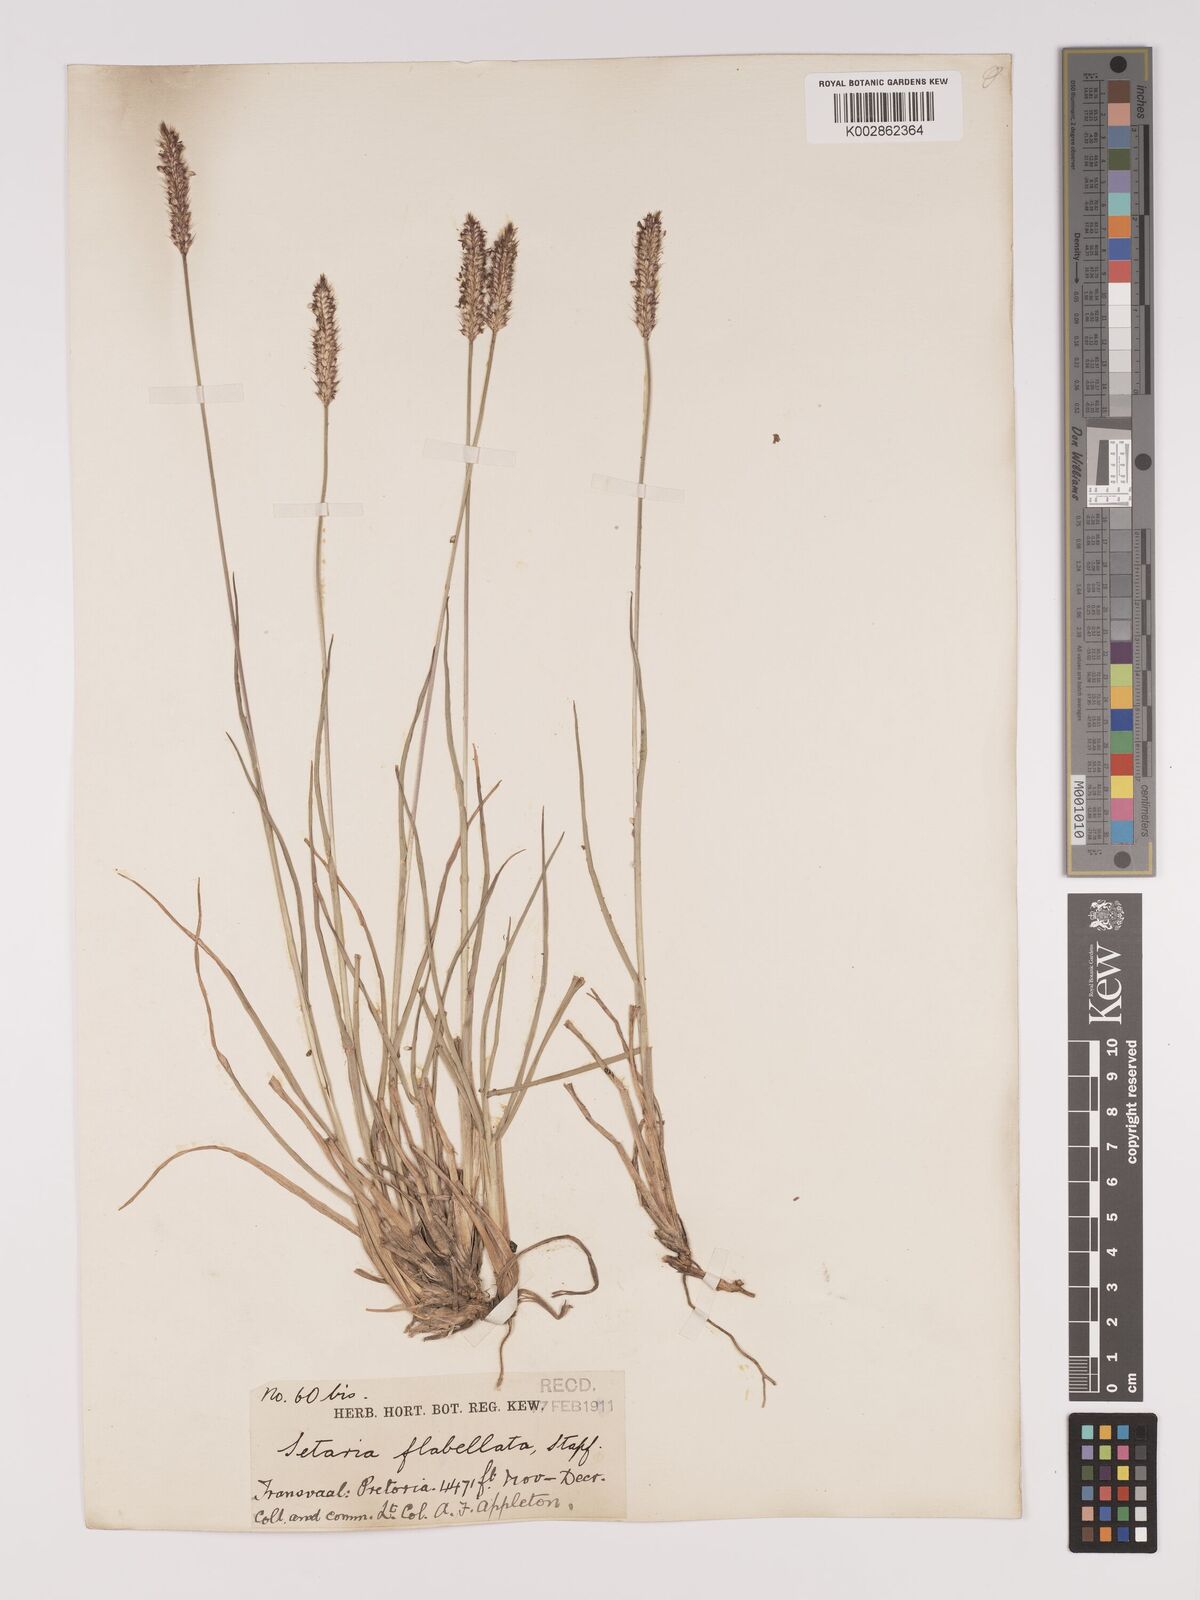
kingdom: Plantae
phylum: Tracheophyta
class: Liliopsida
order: Poales
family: Poaceae
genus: Setaria
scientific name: Setaria sphacelata
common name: African bristlegrass
